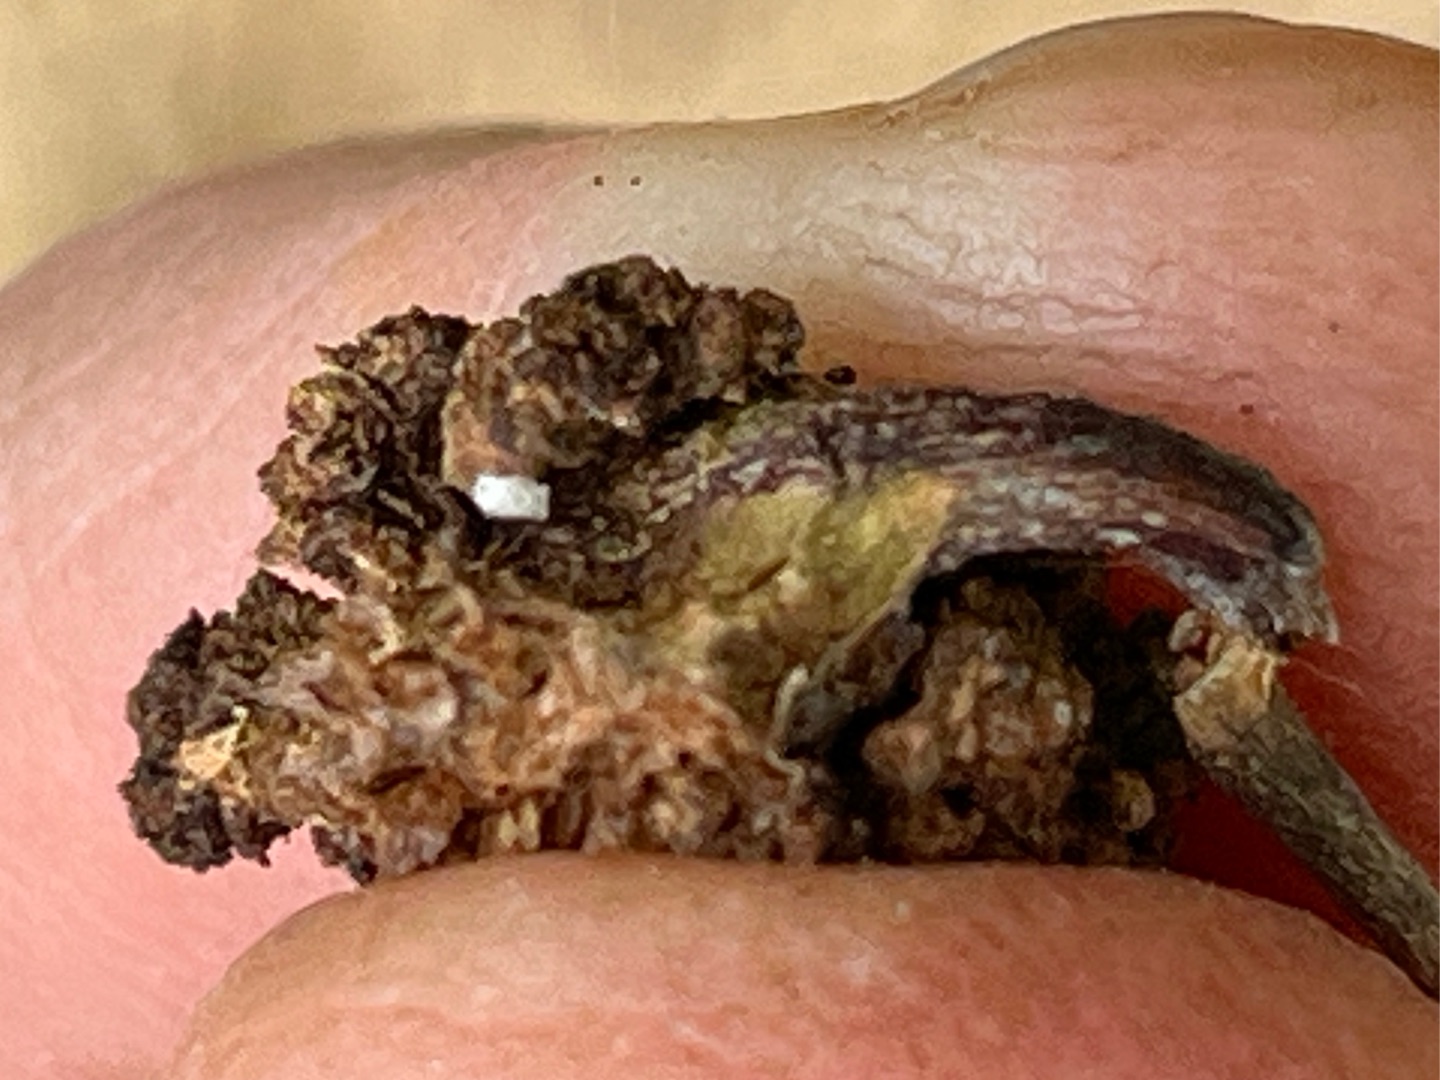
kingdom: Animalia
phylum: Arthropoda
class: Arachnida
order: Trombidiformes
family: Eriophyidae
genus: Aceria
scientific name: Aceria fraxinivora
